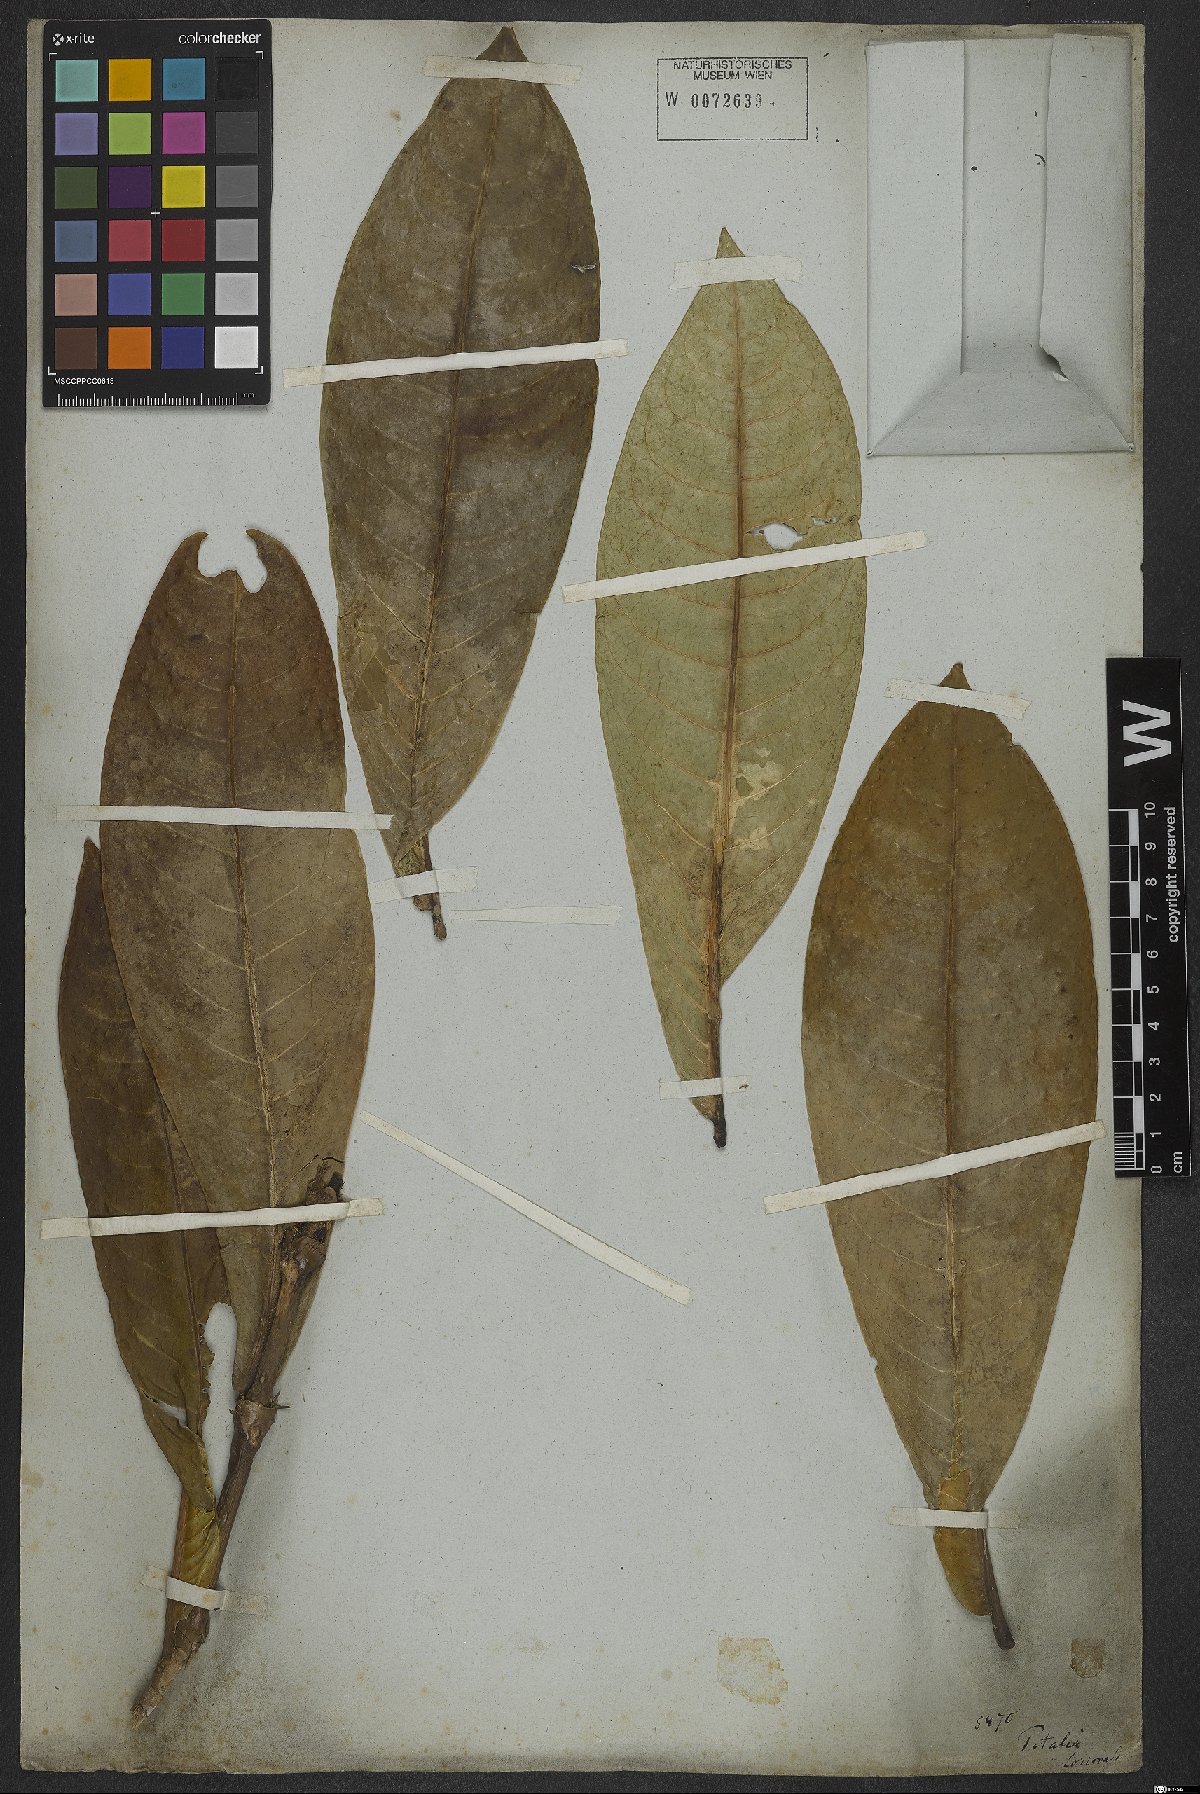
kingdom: Plantae
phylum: Tracheophyta
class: Magnoliopsida
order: Gentianales
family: Rubiaceae
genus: Rudgea
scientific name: Rudgea macrophylla
